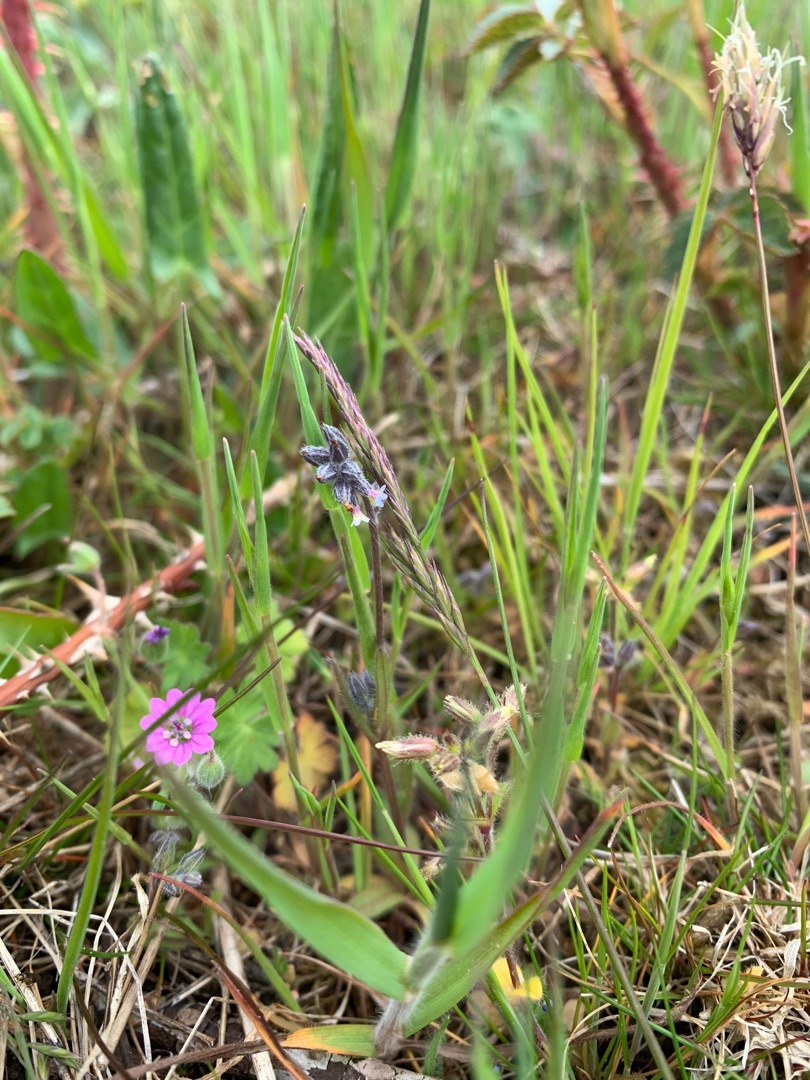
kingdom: Plantae
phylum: Tracheophyta
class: Magnoliopsida
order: Boraginales
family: Boraginaceae
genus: Myosotis
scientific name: Myosotis discolor
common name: Forskelligfarvet forglemmigej
